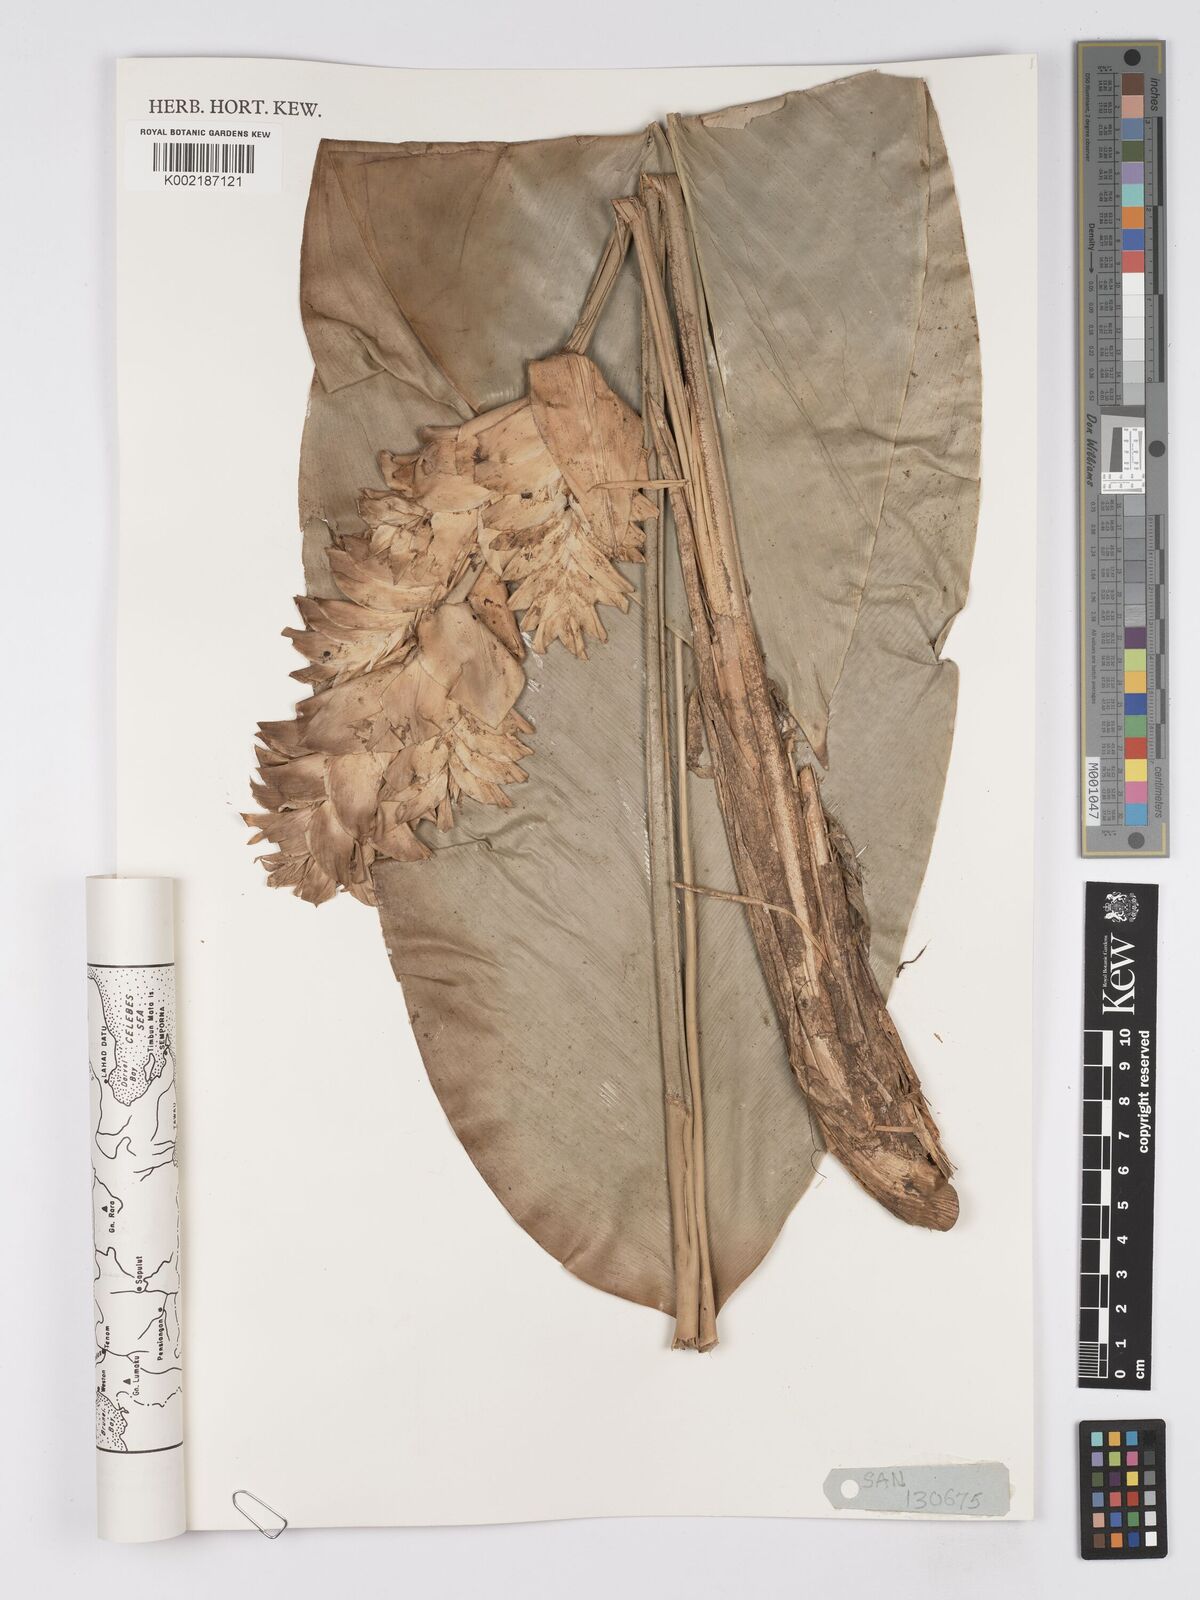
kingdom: Plantae
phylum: Tracheophyta
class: Liliopsida
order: Zingiberales
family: Marantaceae
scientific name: Marantaceae
